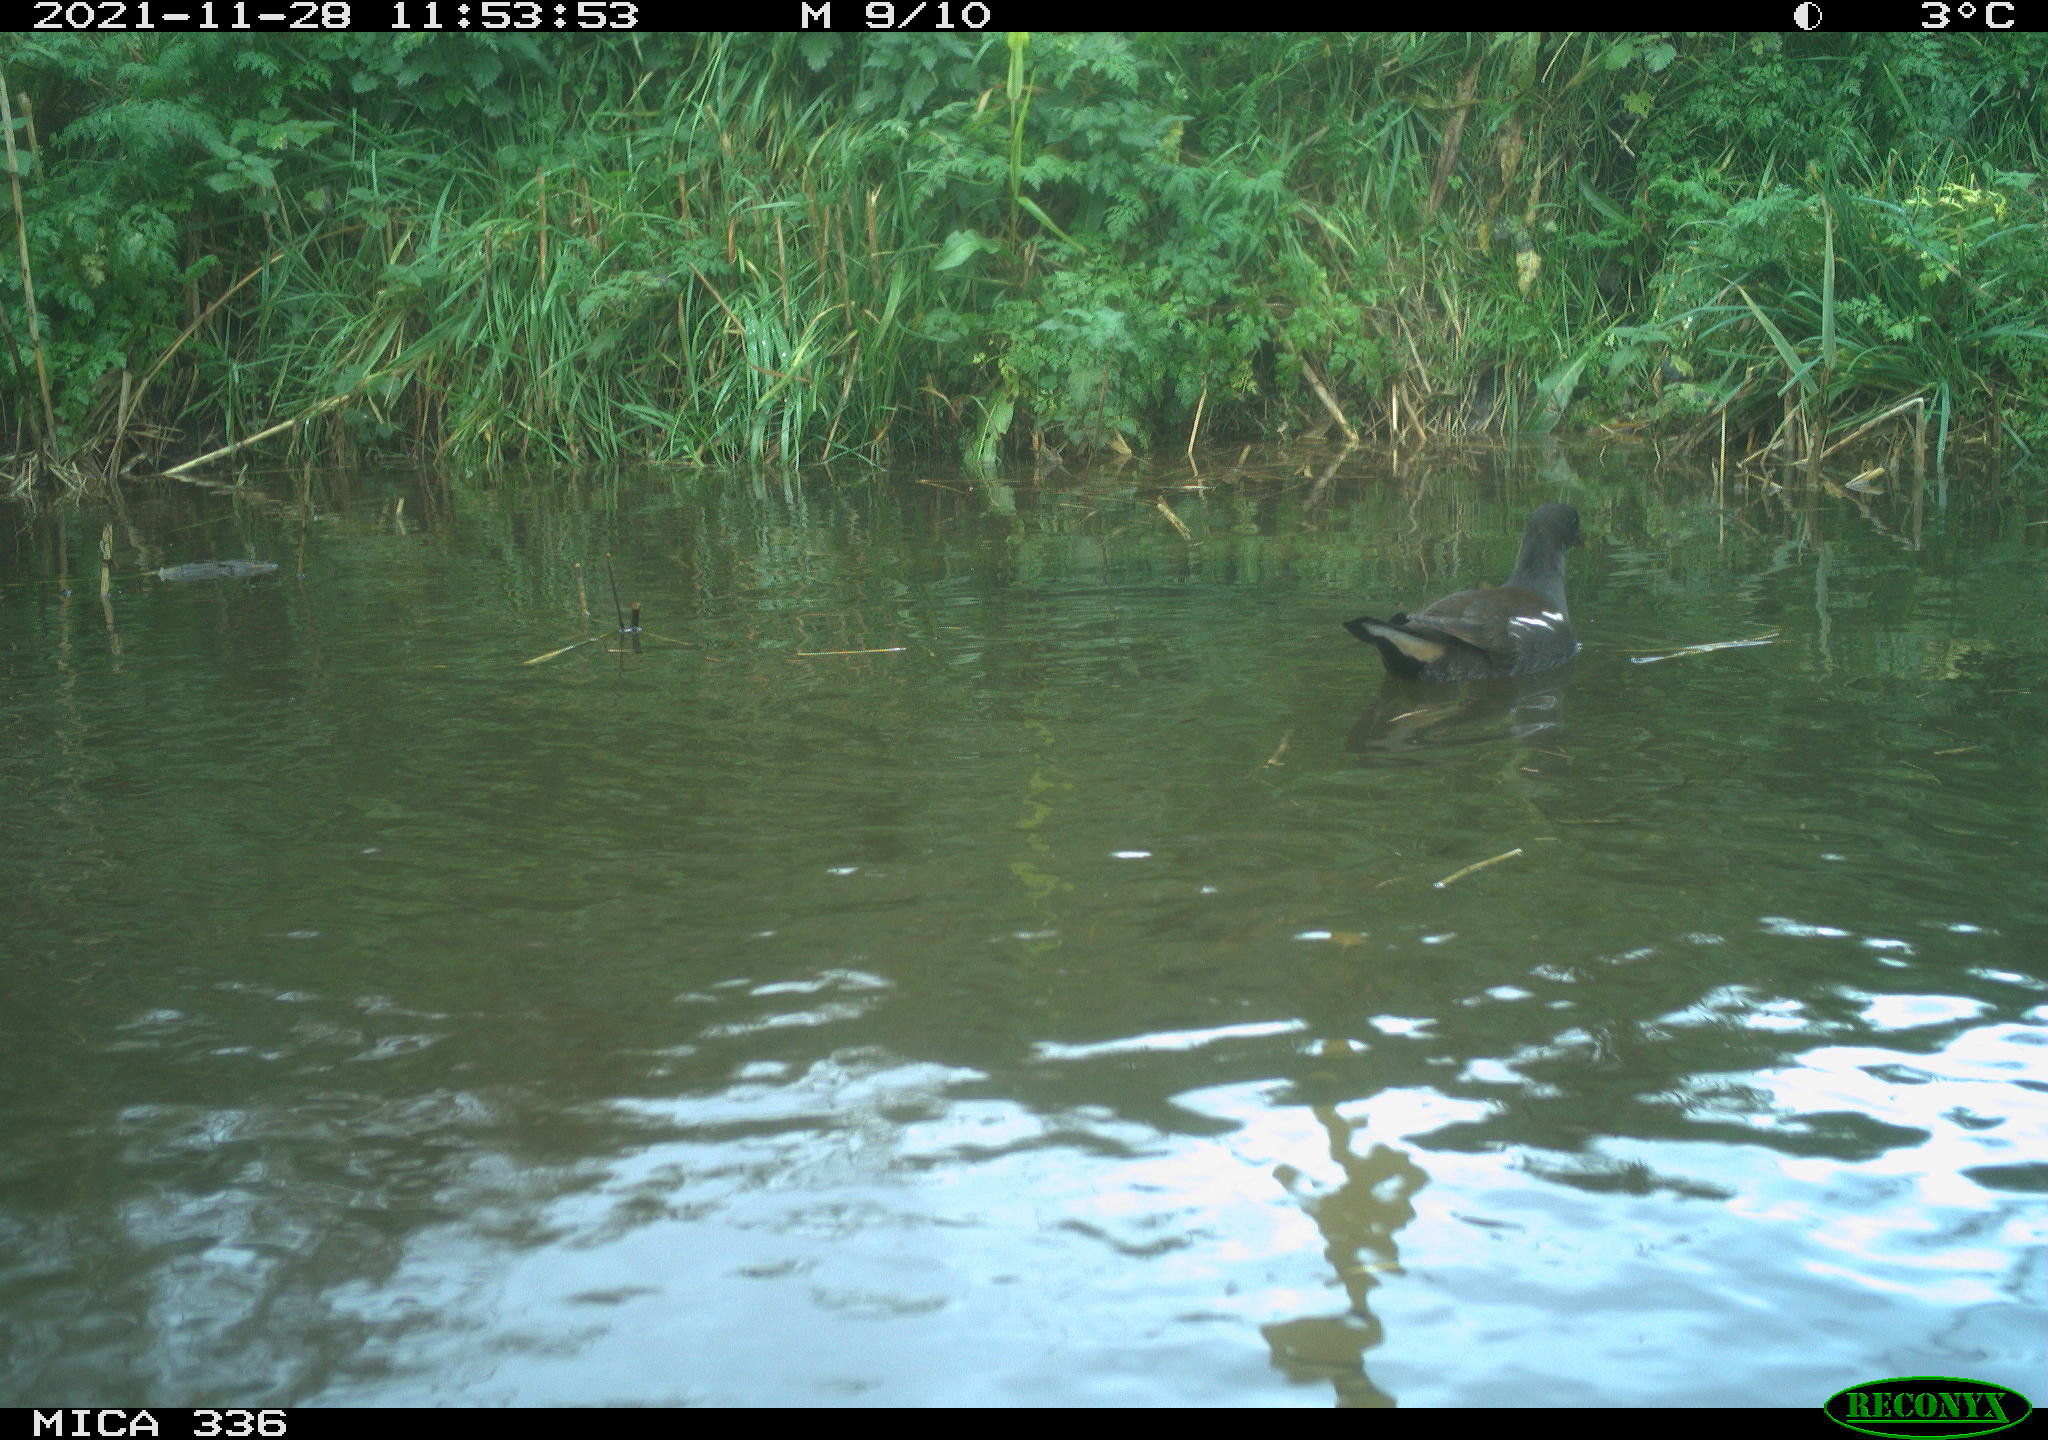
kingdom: Animalia
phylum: Chordata
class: Aves
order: Gruiformes
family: Rallidae
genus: Gallinula
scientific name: Gallinula chloropus
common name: Common moorhen
